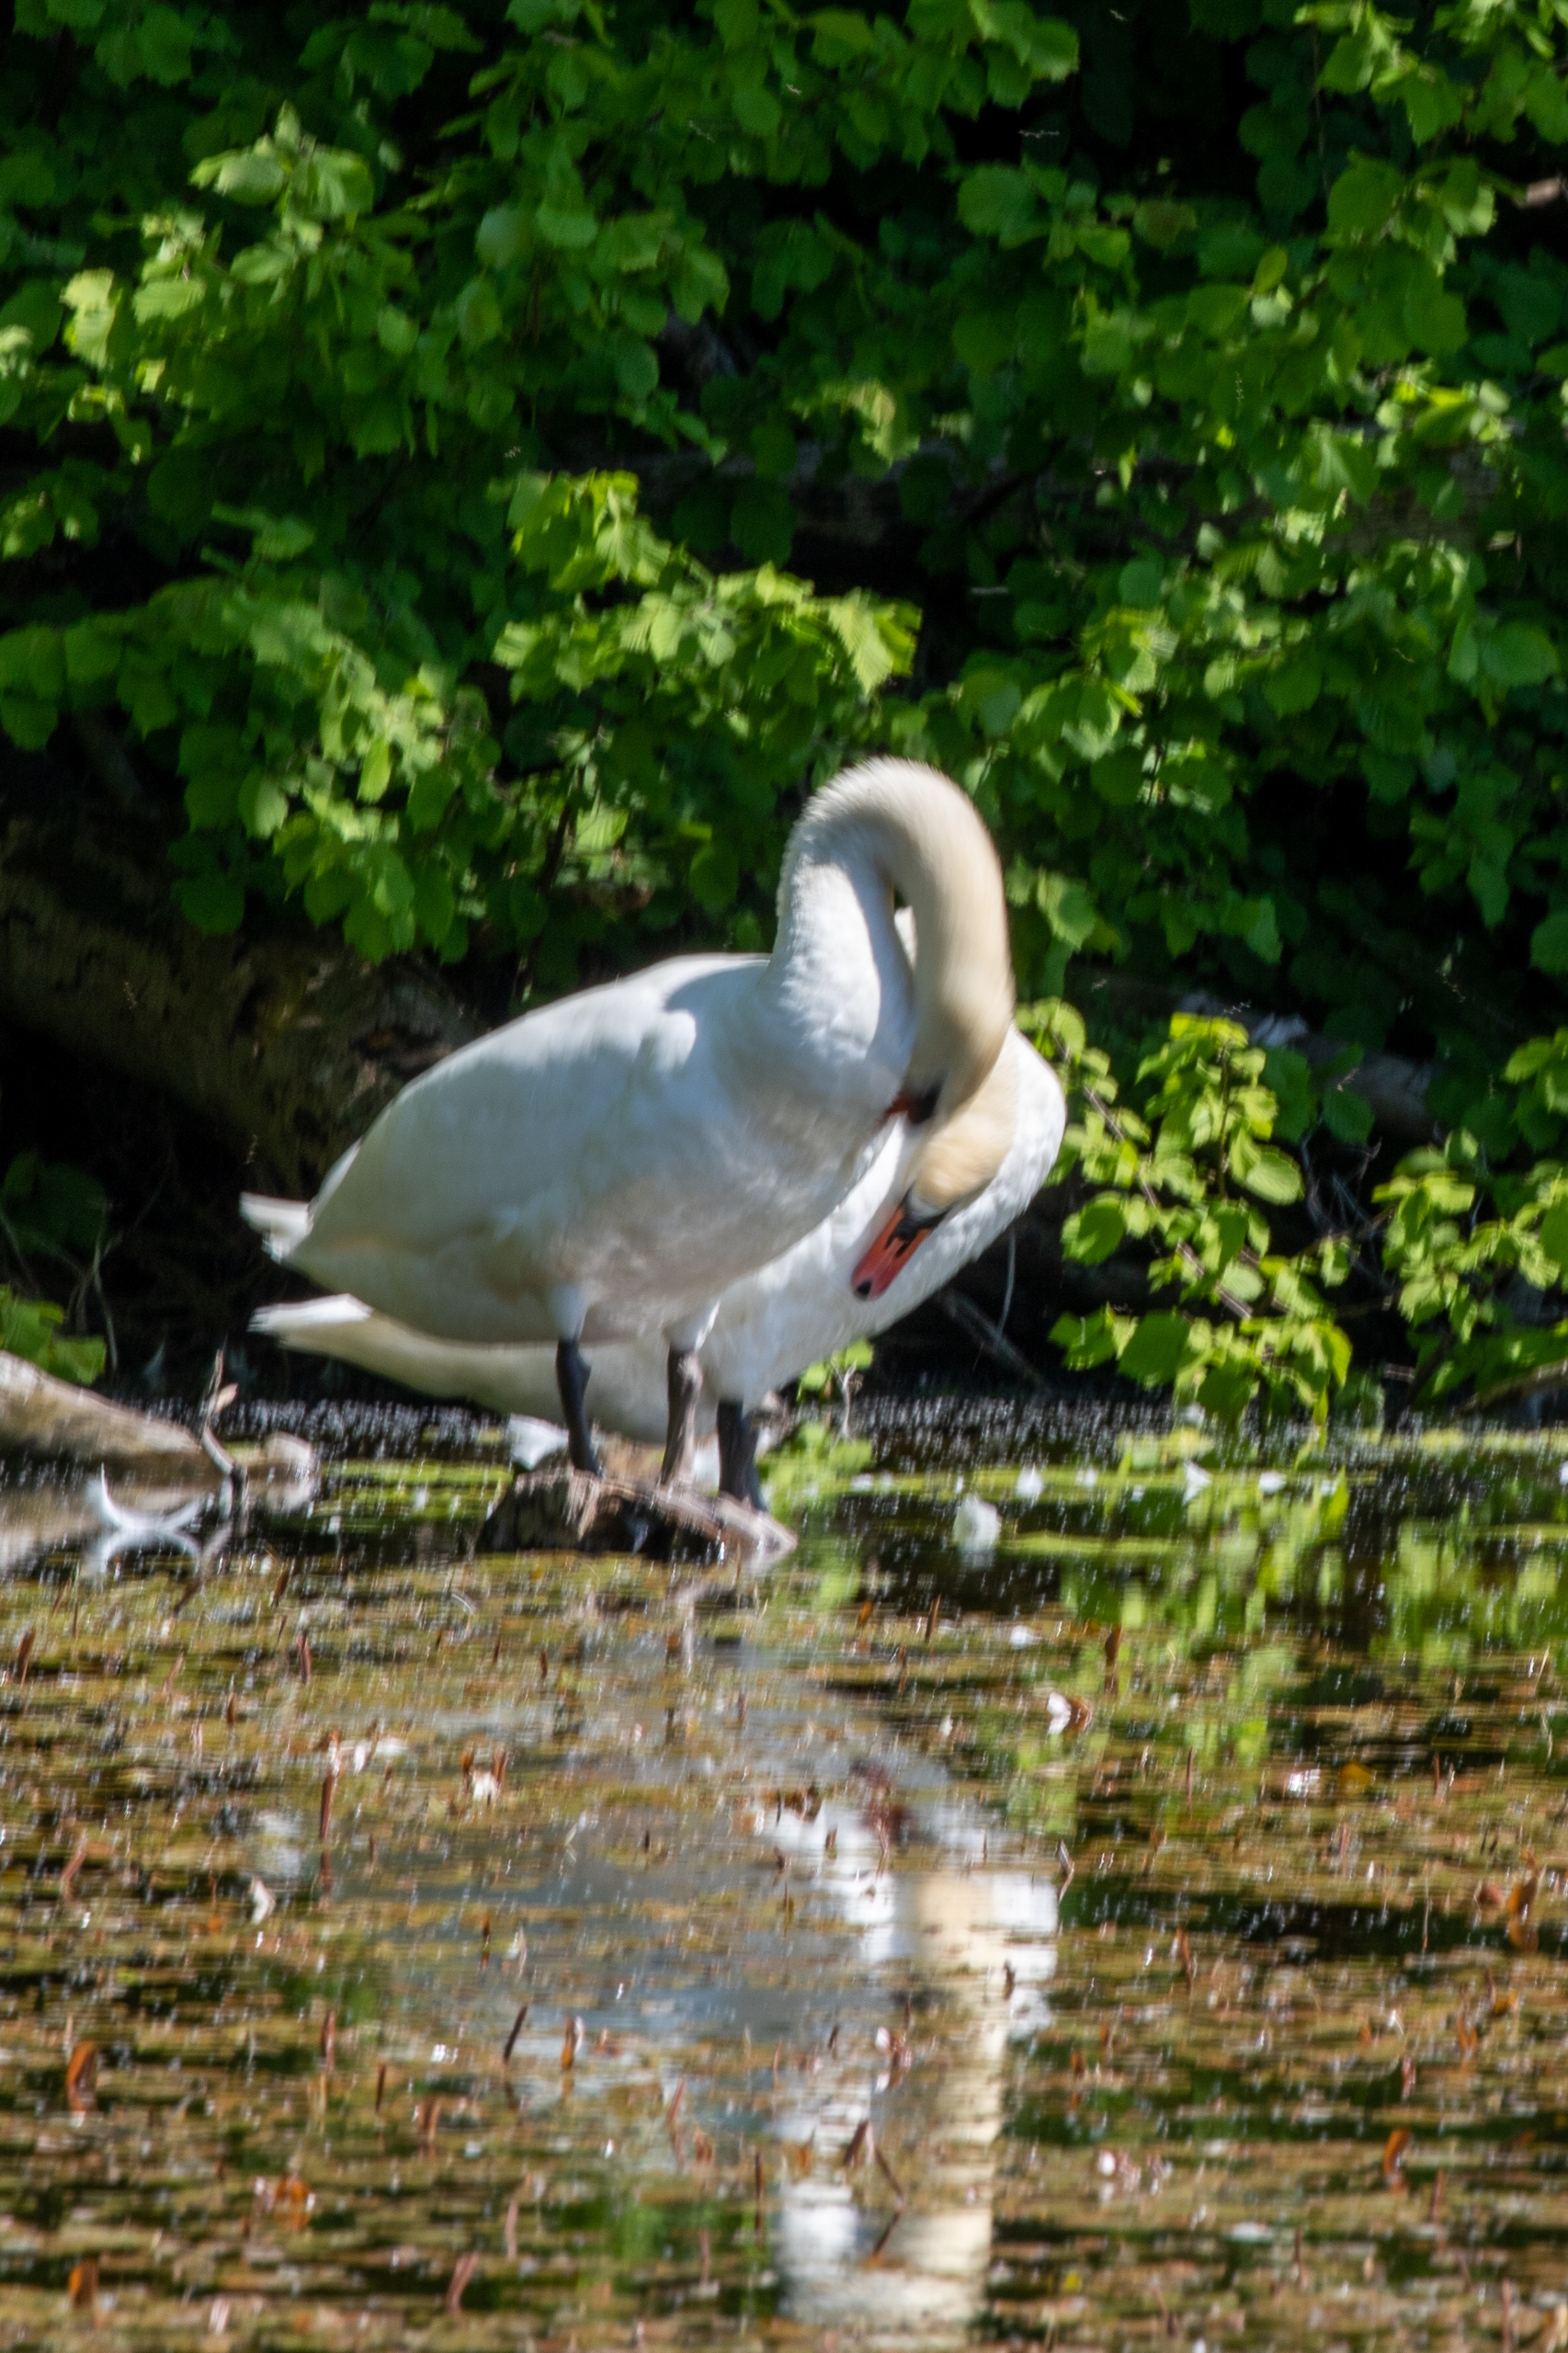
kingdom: Animalia
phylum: Chordata
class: Aves
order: Anseriformes
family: Anatidae
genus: Cygnus
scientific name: Cygnus olor
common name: Knopsvane
